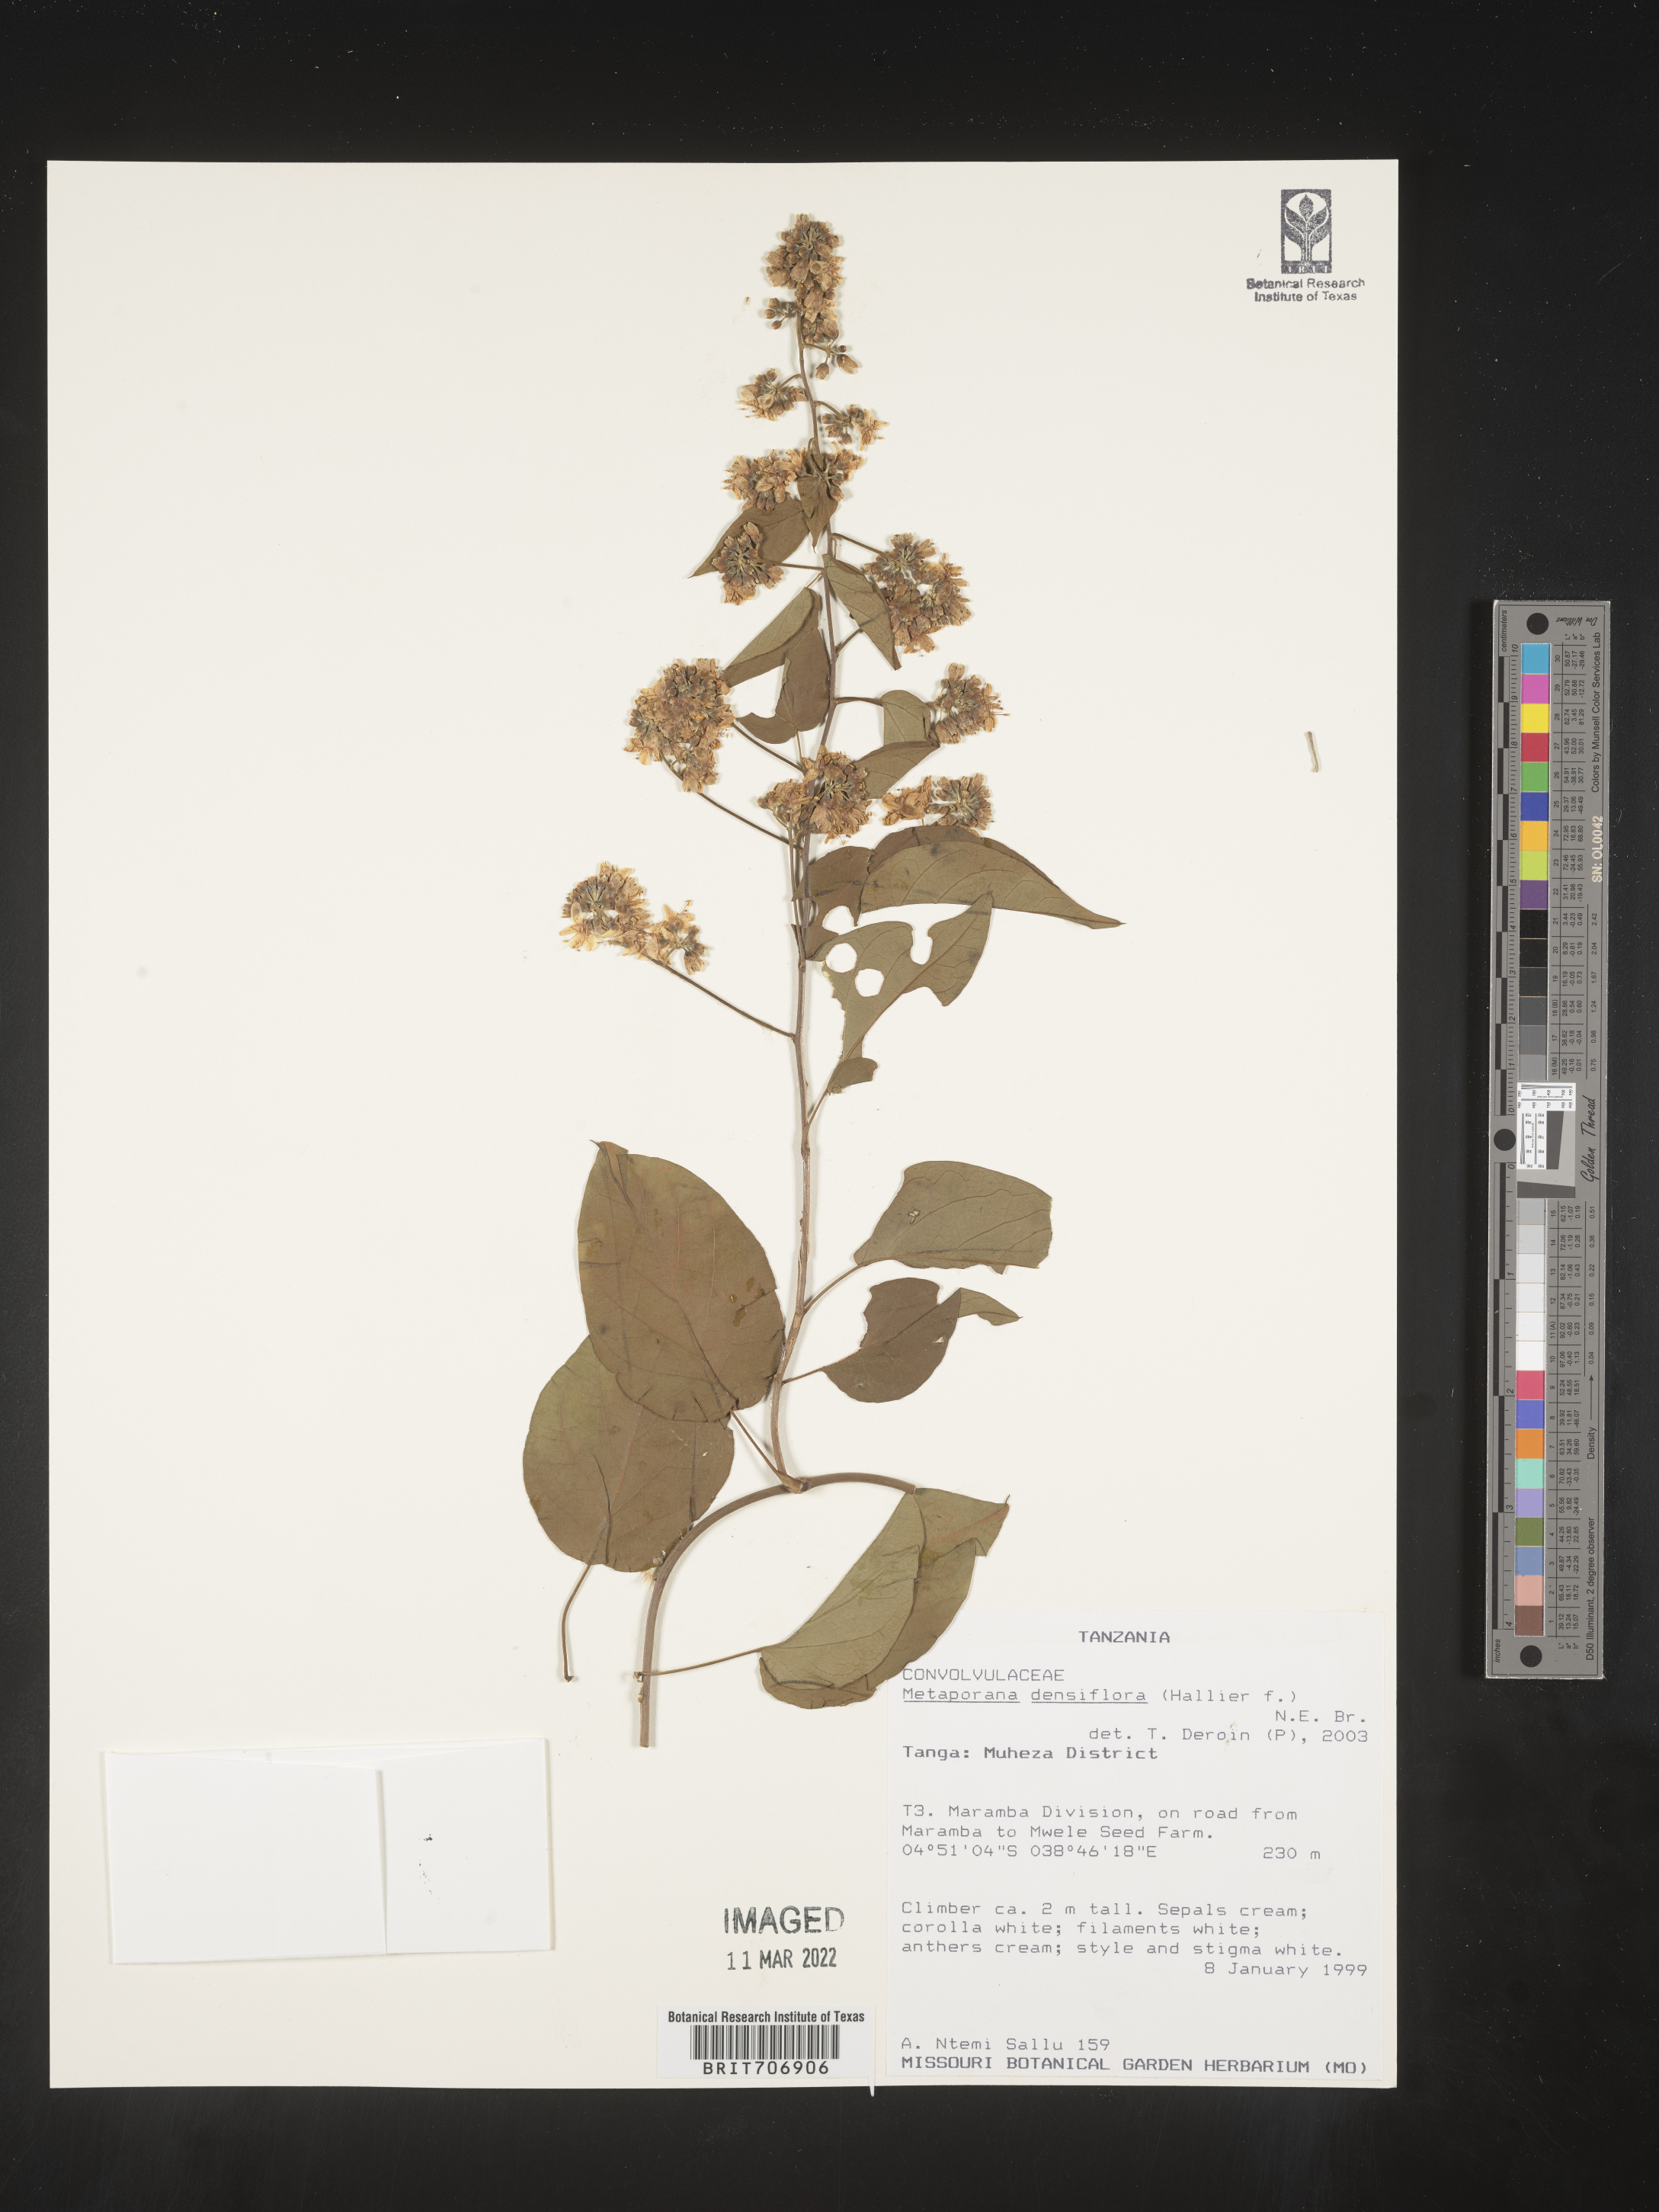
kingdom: Plantae
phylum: Tracheophyta
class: Magnoliopsida
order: Solanales
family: Convolvulaceae
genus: Metaporana
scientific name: Metaporana
